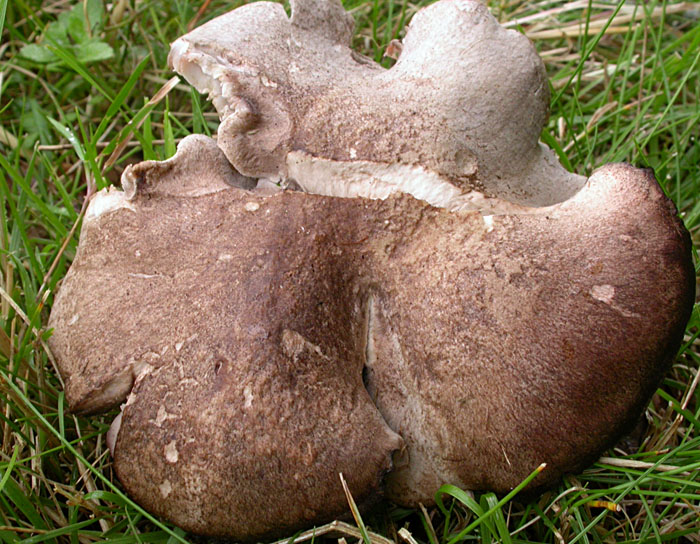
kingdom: Fungi
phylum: Basidiomycota
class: Agaricomycetes
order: Agaricales
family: Tricholomataceae
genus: Pseudotricholoma
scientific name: Pseudotricholoma metapodium
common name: rødmende alfehat
